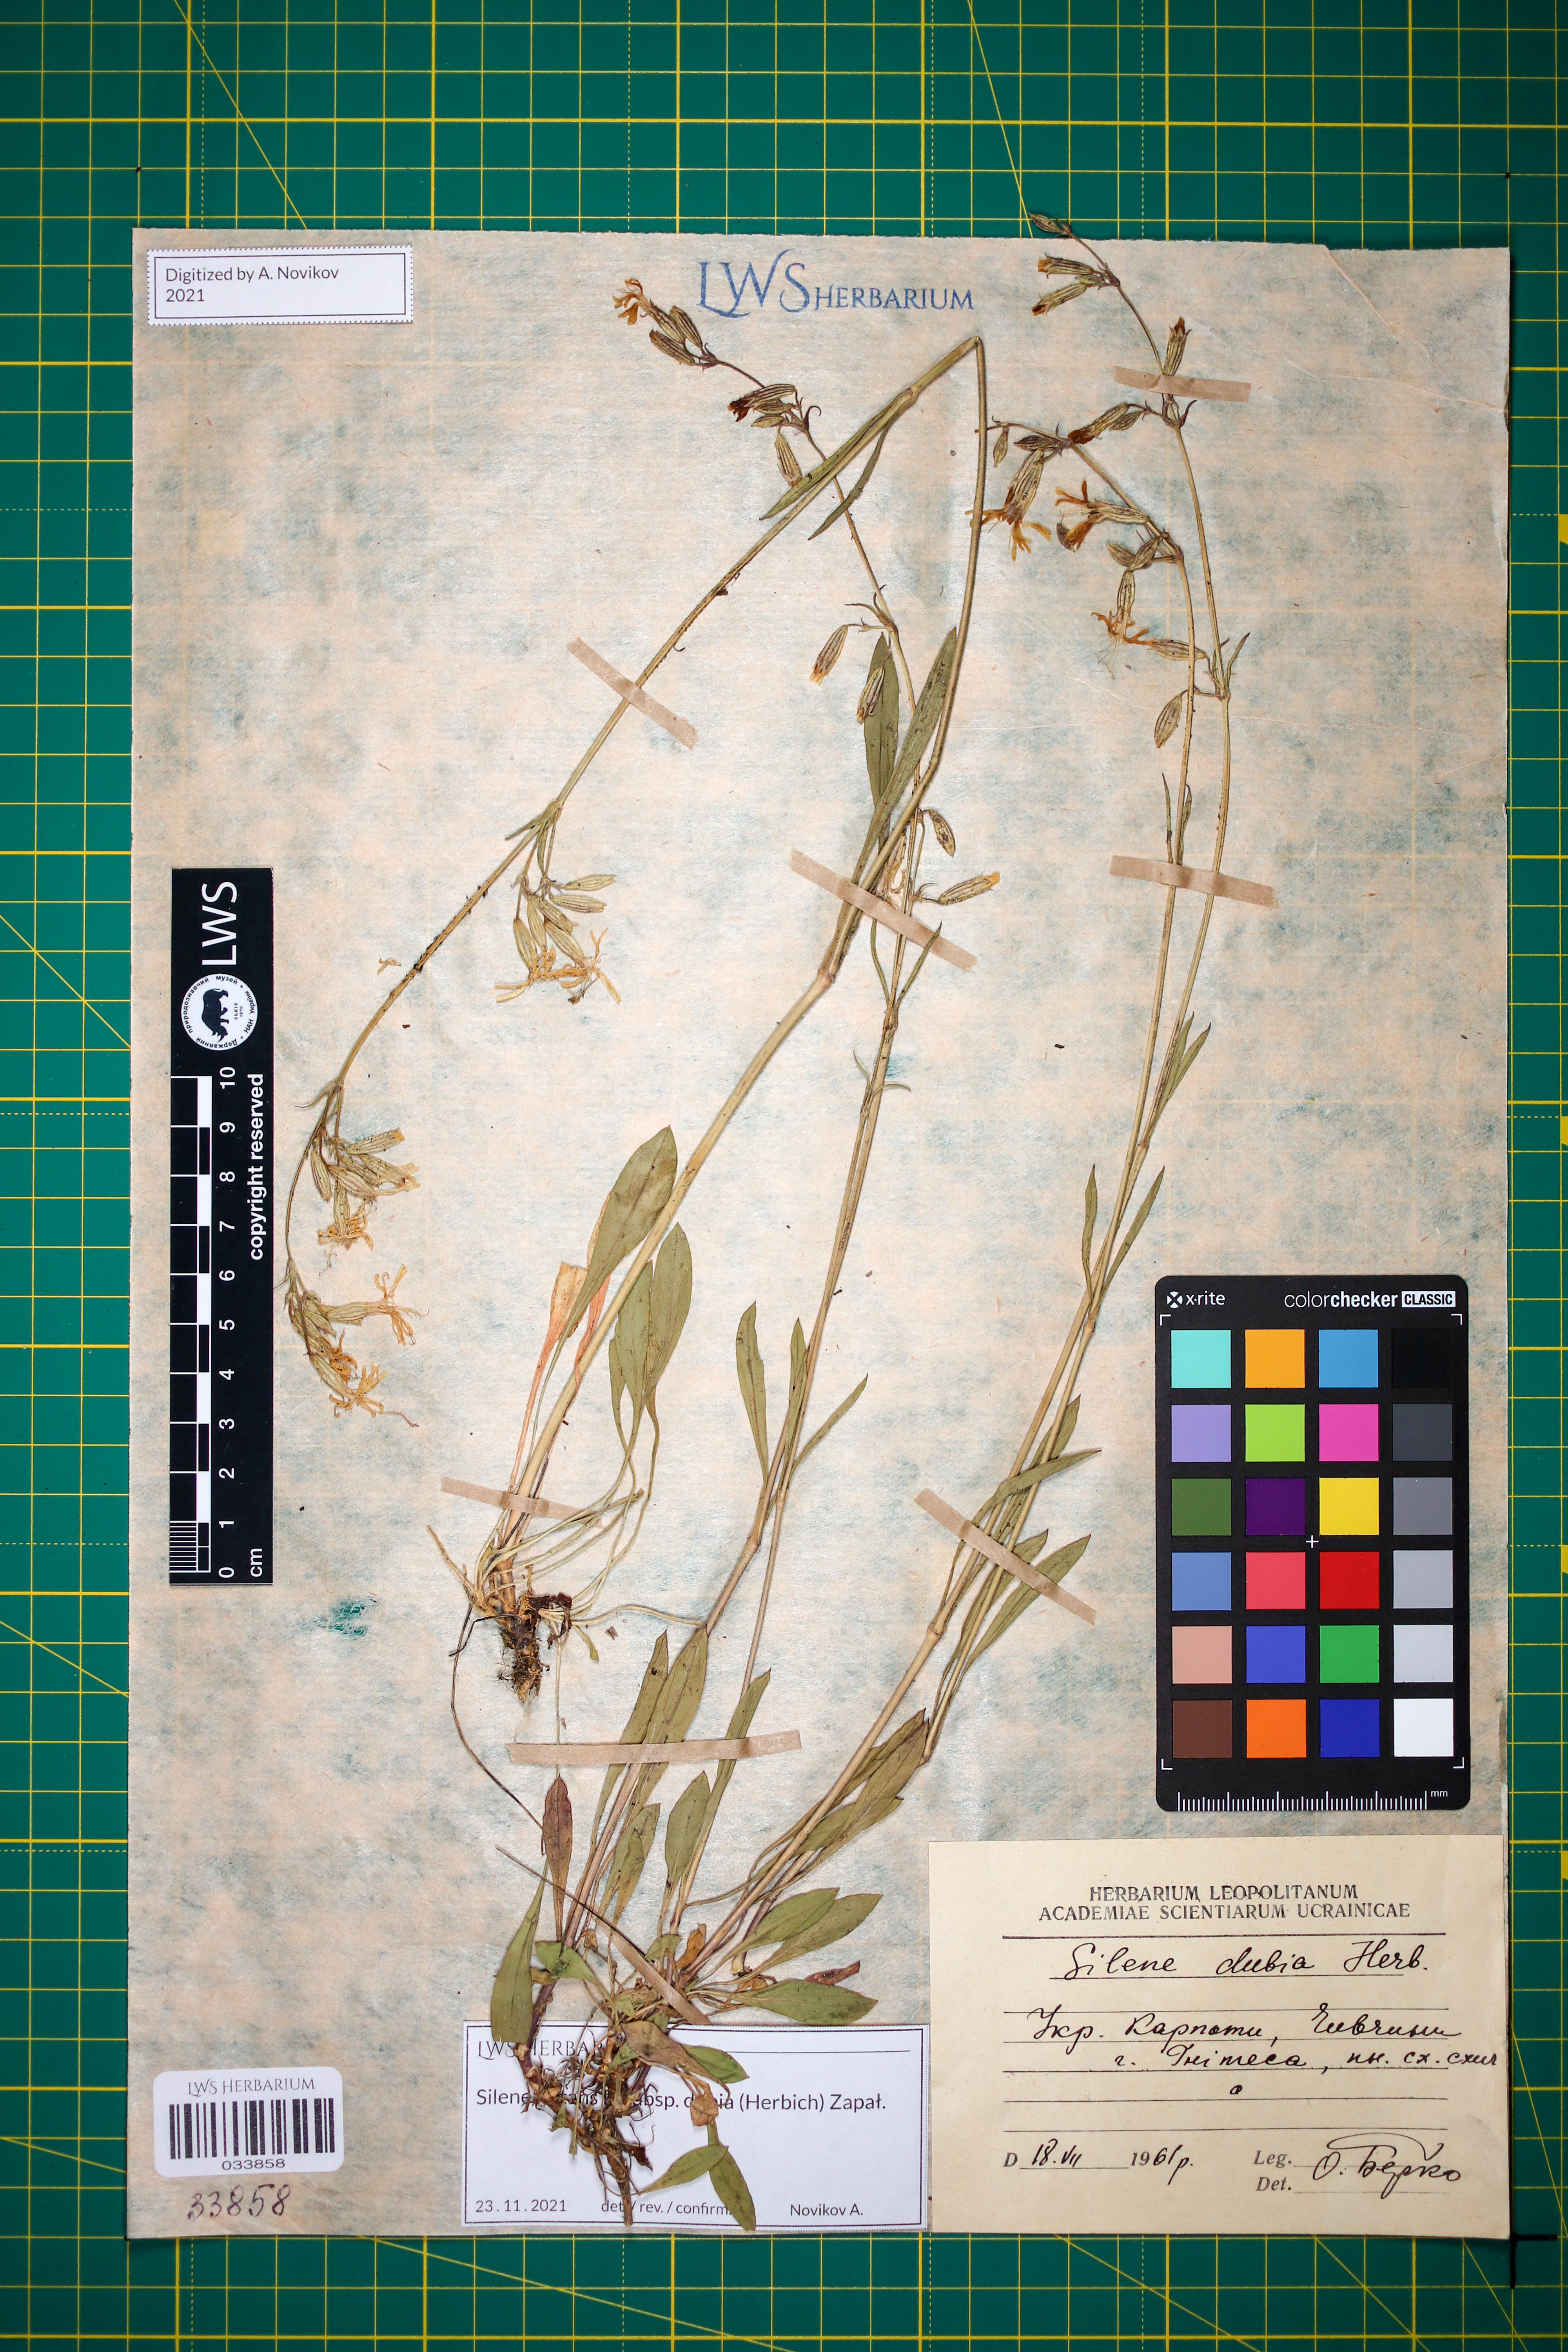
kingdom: Plantae
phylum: Tracheophyta
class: Magnoliopsida
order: Caryophyllales
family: Caryophyllaceae
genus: Silene
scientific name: Silene nutans
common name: Nottingham catchfly
